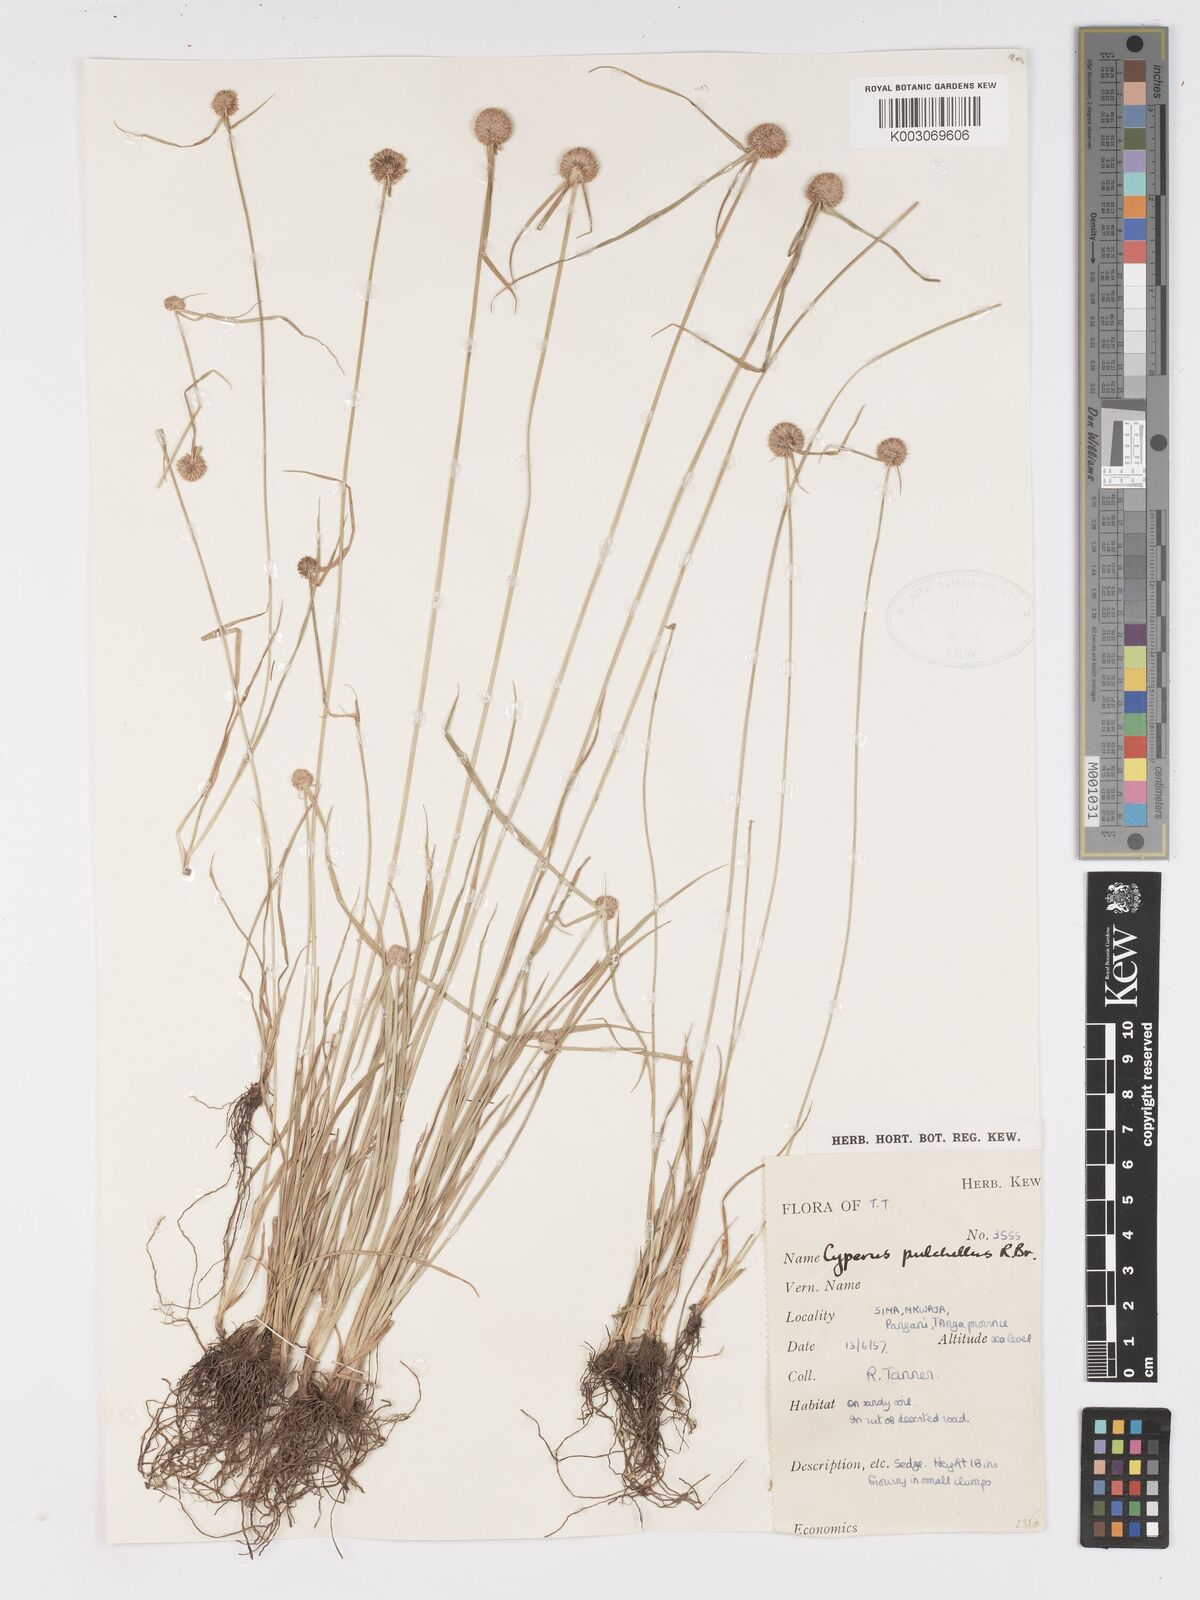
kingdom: Plantae
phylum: Tracheophyta
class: Liliopsida
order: Poales
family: Cyperaceae
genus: Cyperus
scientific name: Cyperus pulchellus
